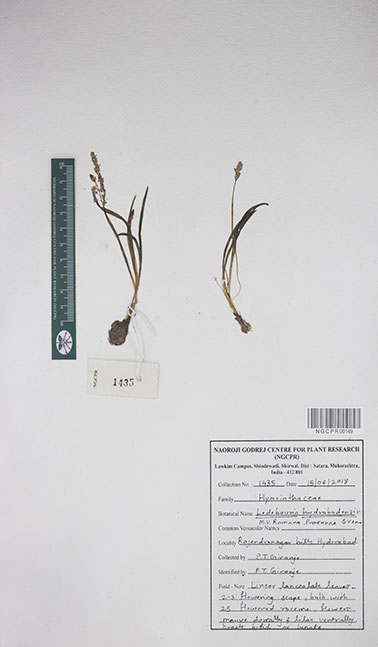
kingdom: Plantae
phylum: Tracheophyta
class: Liliopsida
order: Asparagales
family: Asparagaceae
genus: Ledebouria
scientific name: Ledebouria hyderabadensis
